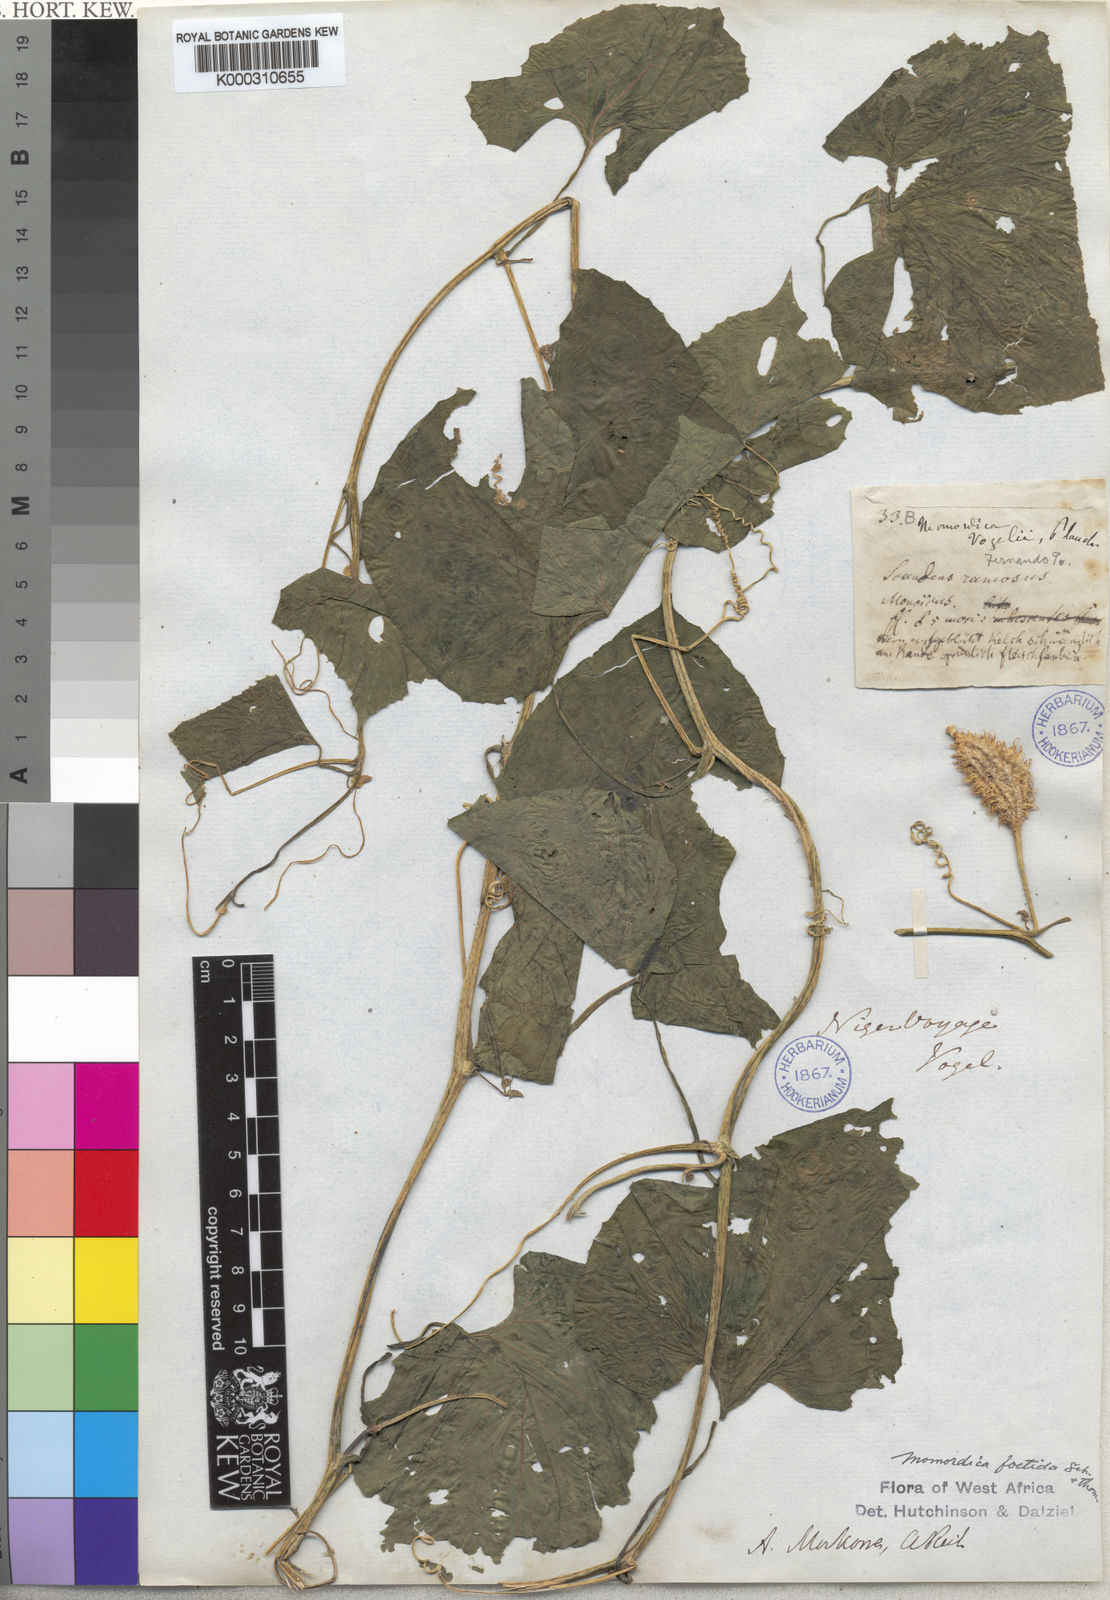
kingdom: Plantae
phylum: Tracheophyta
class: Magnoliopsida
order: Cucurbitales
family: Cucurbitaceae
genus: Momordica
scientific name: Momordica foetida
